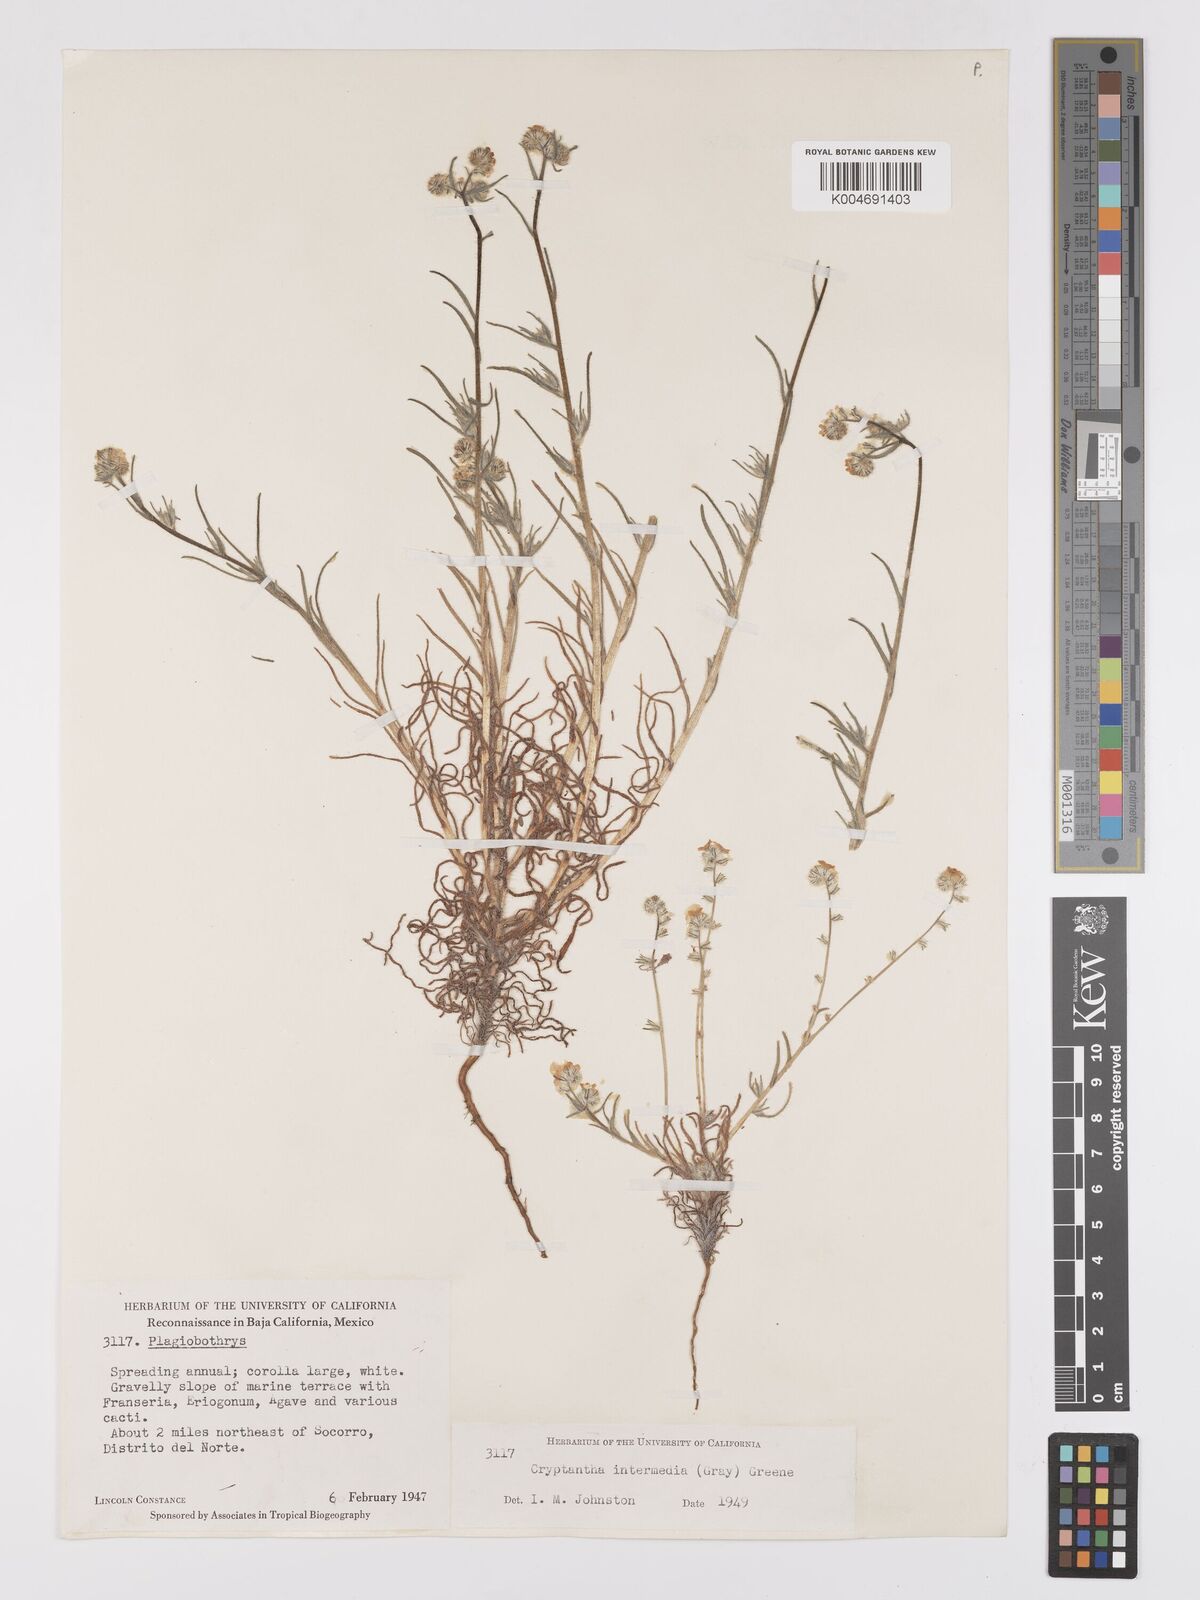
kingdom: Plantae
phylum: Tracheophyta
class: Magnoliopsida
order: Boraginales
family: Boraginaceae
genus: Cryptantha
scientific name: Cryptantha intermedia
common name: Clearwater cryptantha
